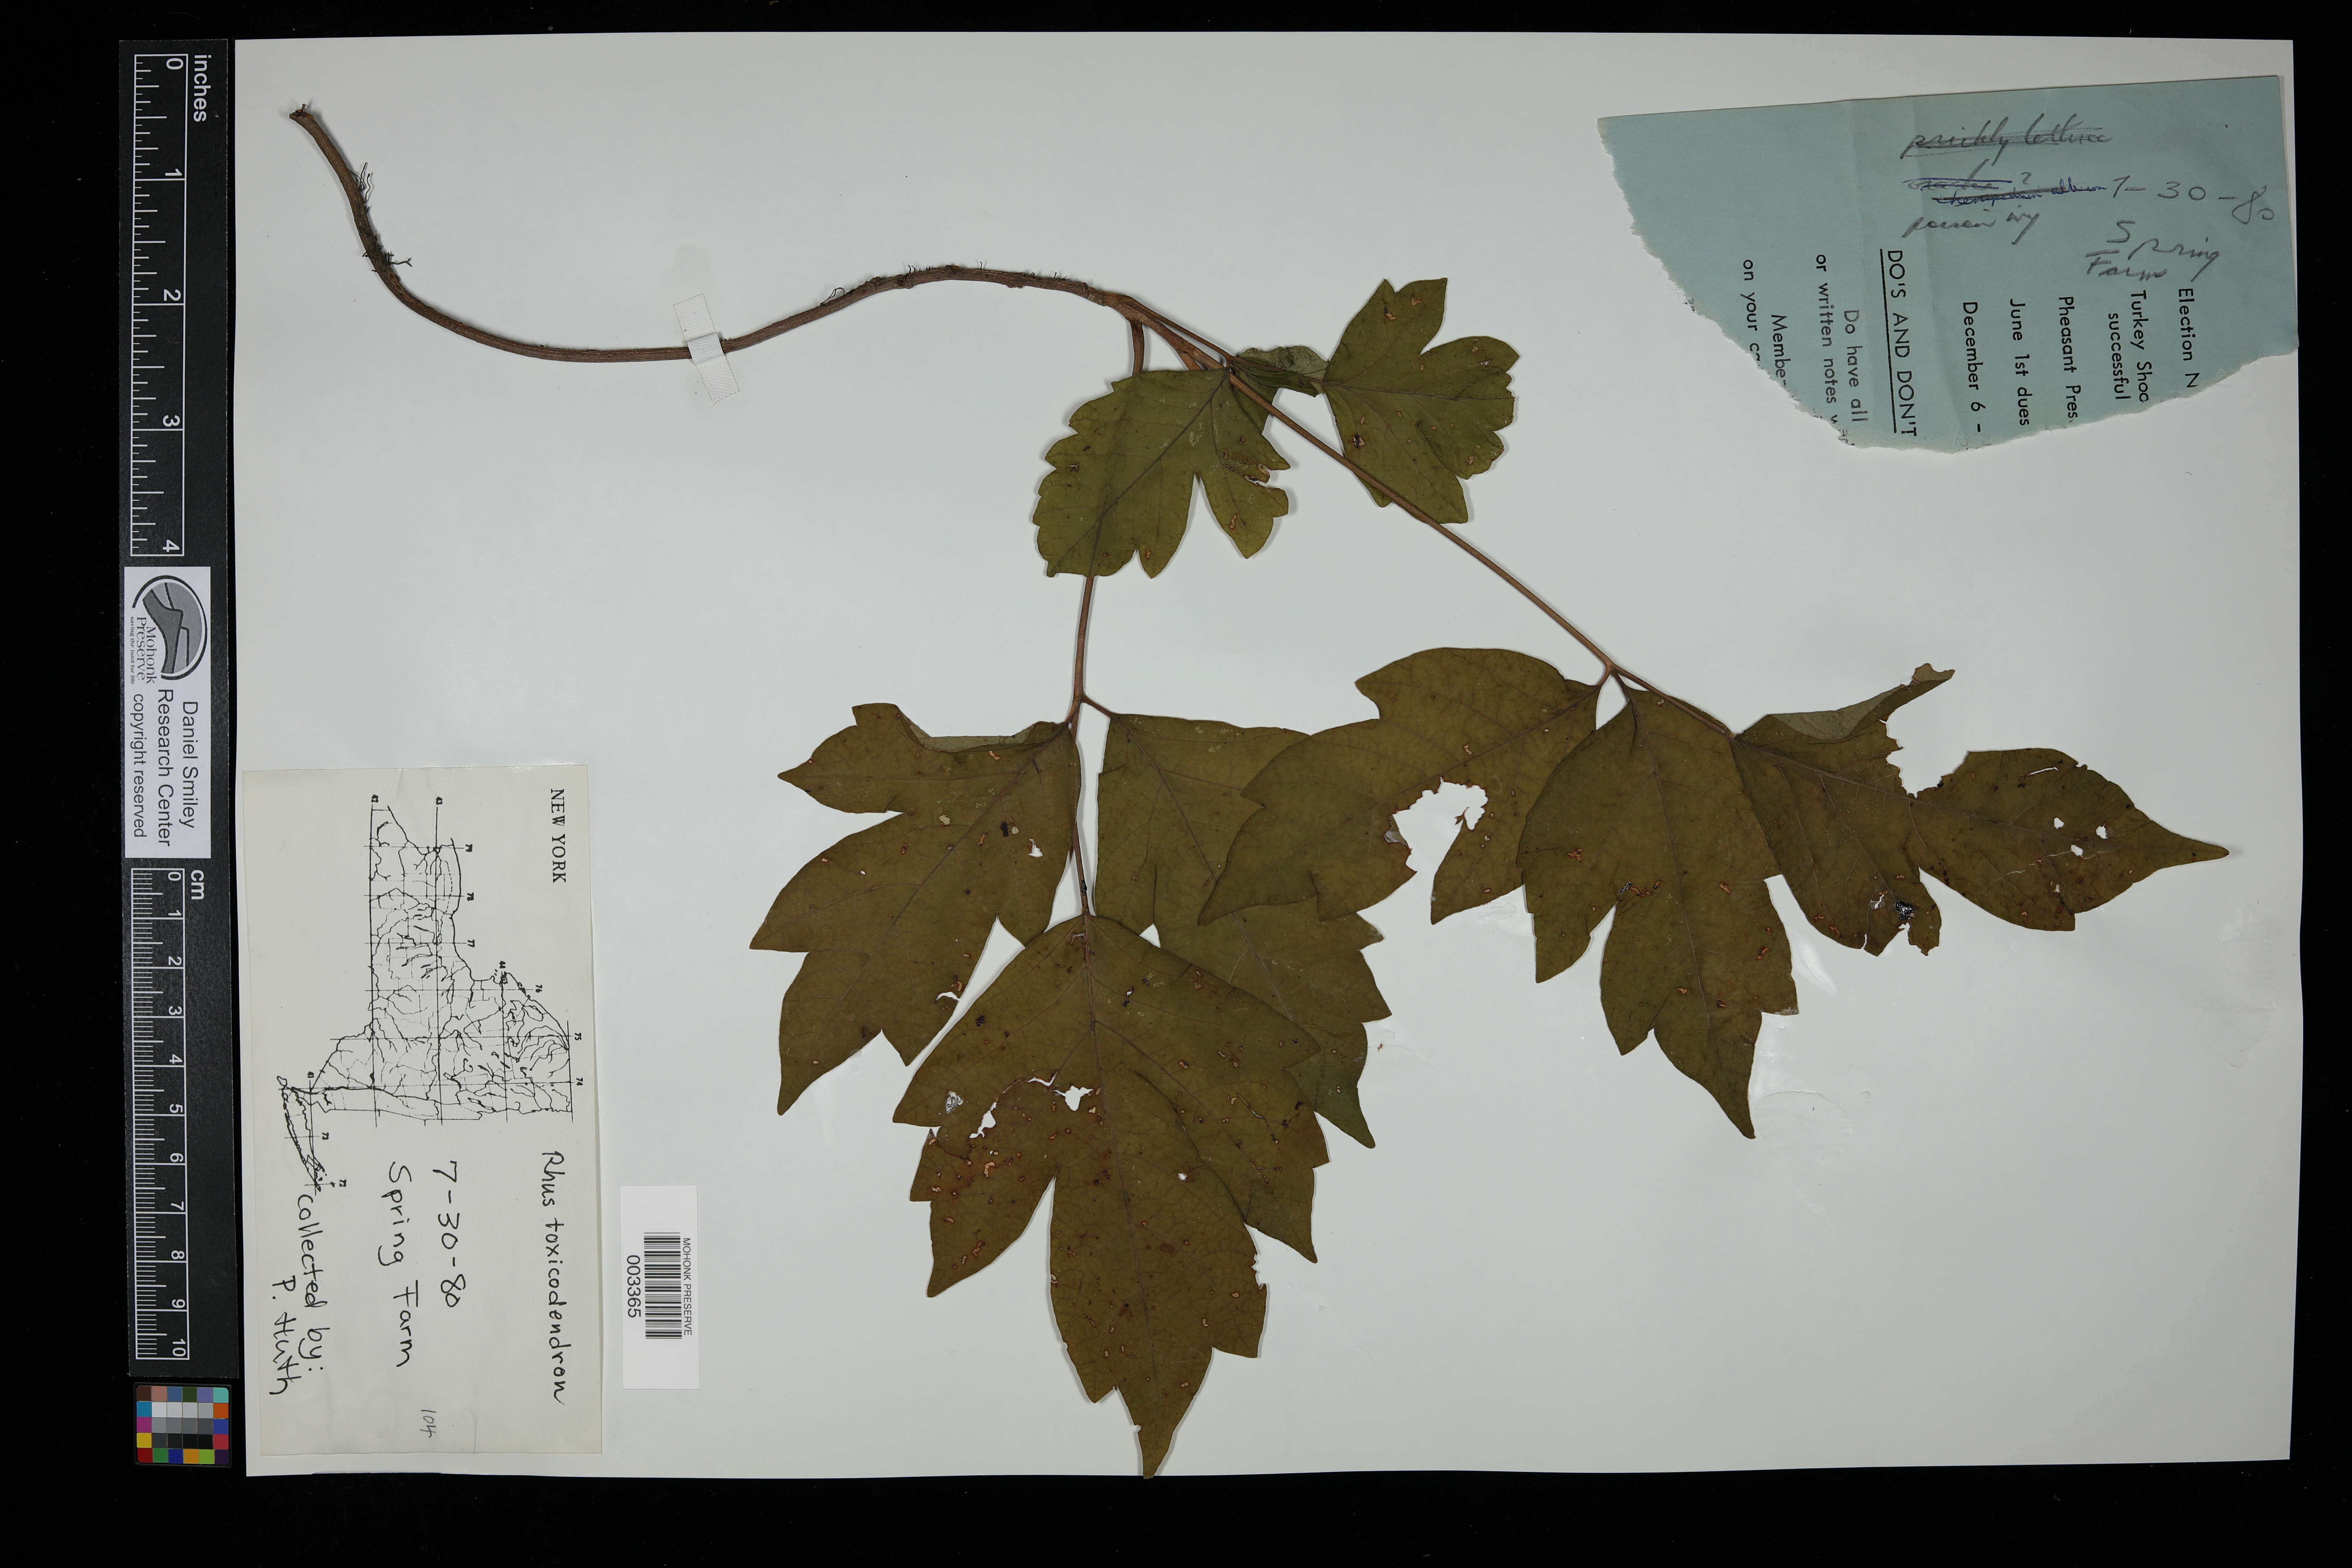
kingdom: Plantae
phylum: Tracheophyta
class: Magnoliopsida
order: Sapindales
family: Anacardiaceae
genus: Toxicodendron
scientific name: Toxicodendron pubescens
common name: Eastern poison-oak
